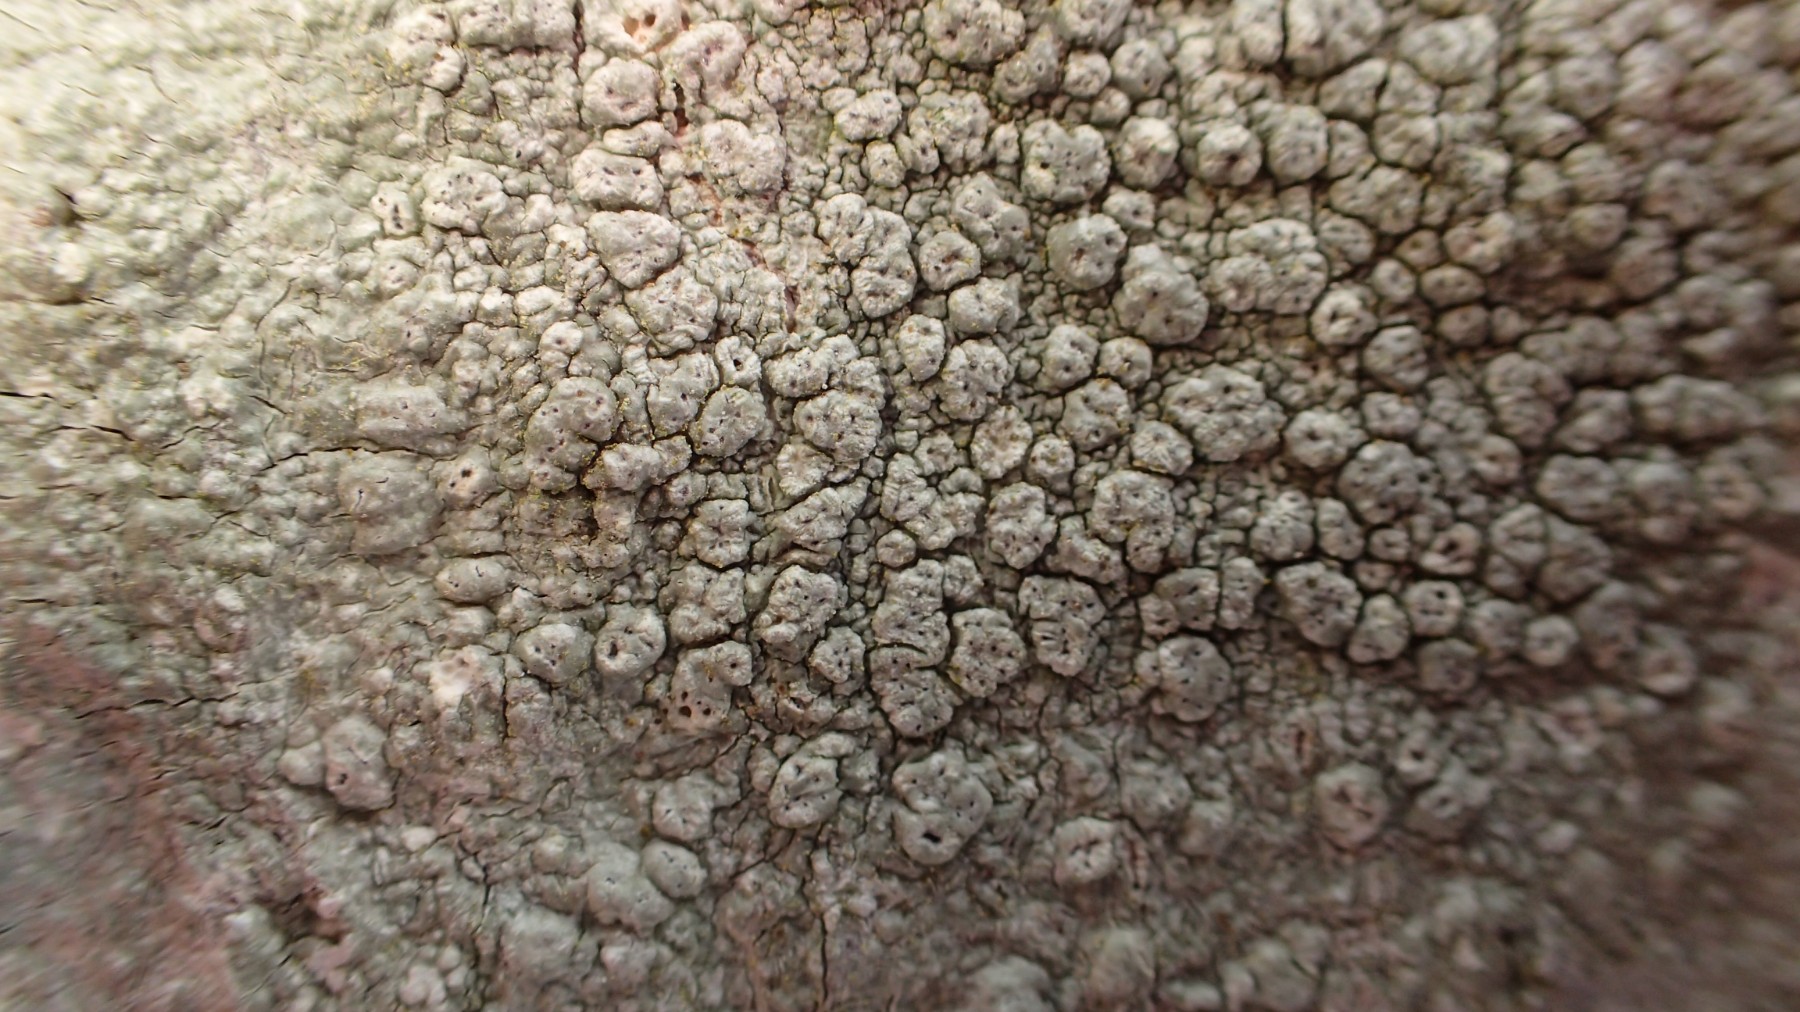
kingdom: Fungi
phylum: Ascomycota
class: Lecanoromycetes
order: Pertusariales
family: Pertusariaceae
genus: Pertusaria
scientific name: Pertusaria pertusa
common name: almindelig prikvortelav
